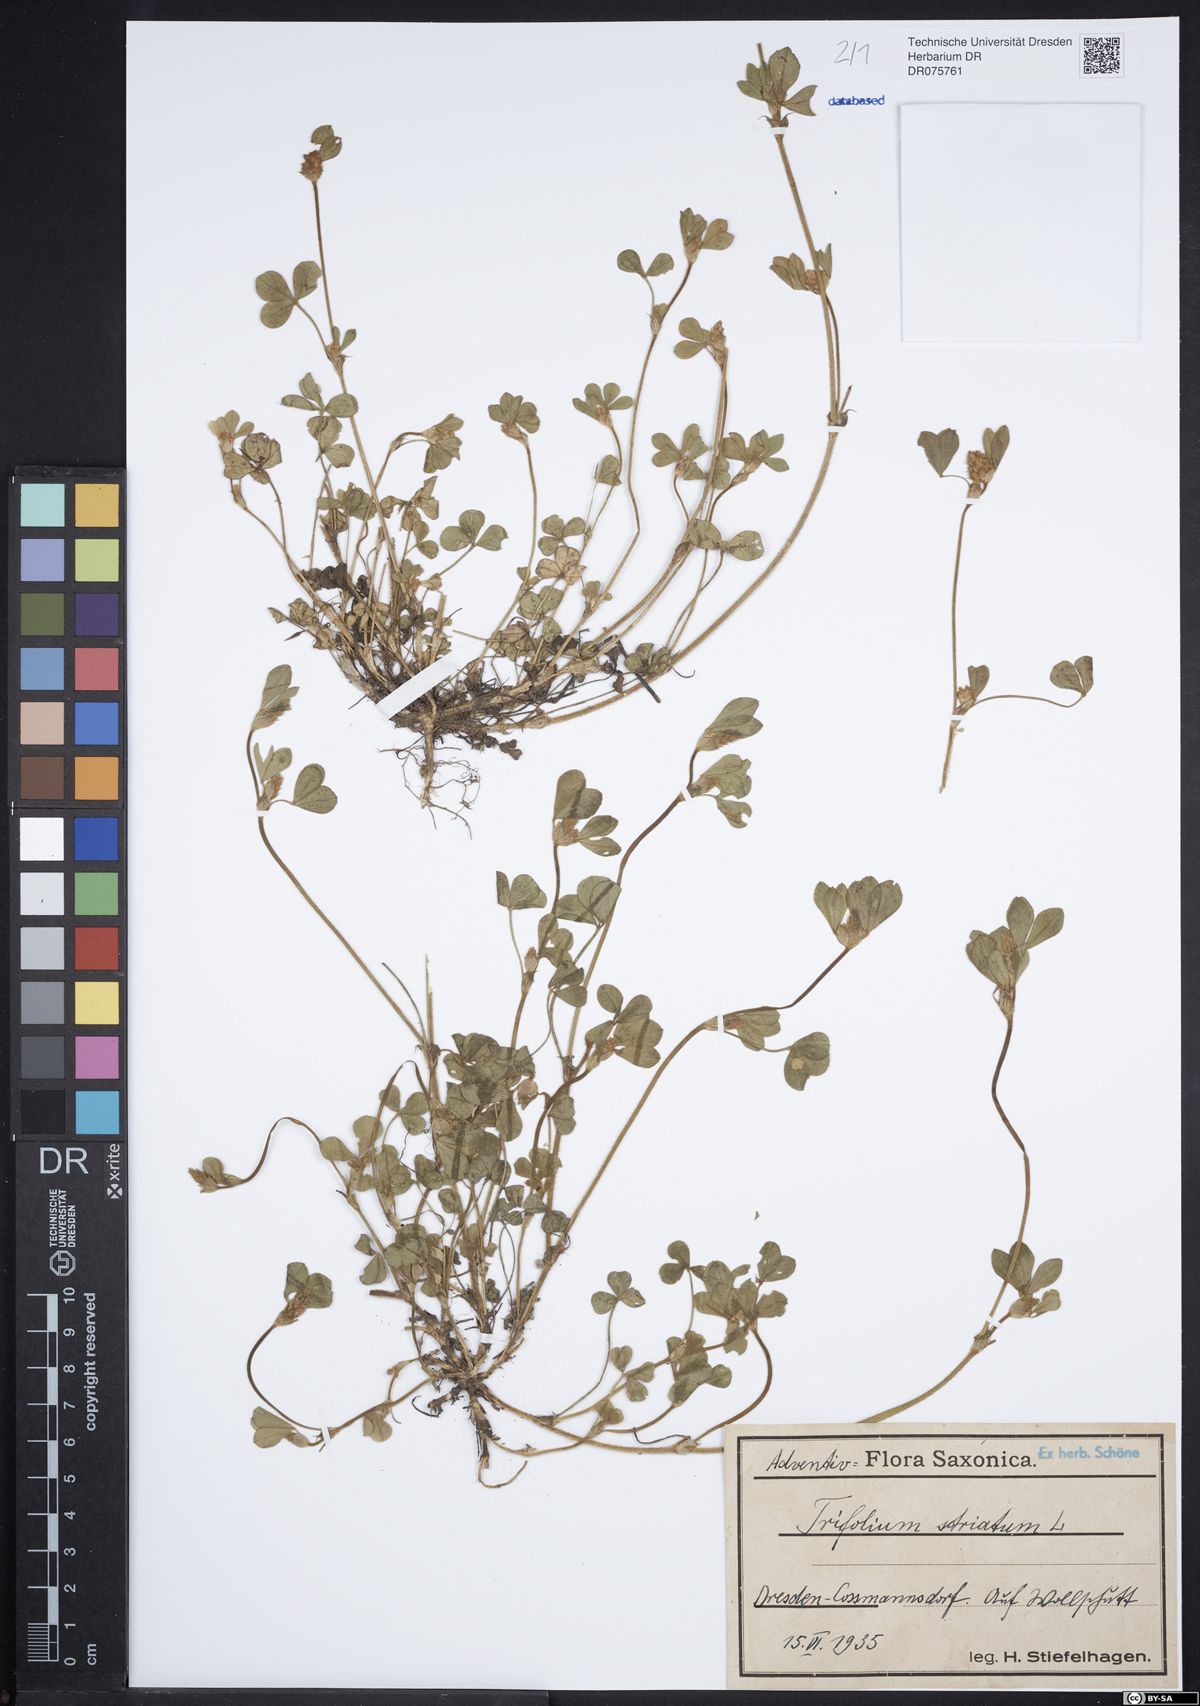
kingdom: Plantae
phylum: Tracheophyta
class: Magnoliopsida
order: Fabales
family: Fabaceae
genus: Trifolium
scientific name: Trifolium striatum
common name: Knotted clover
